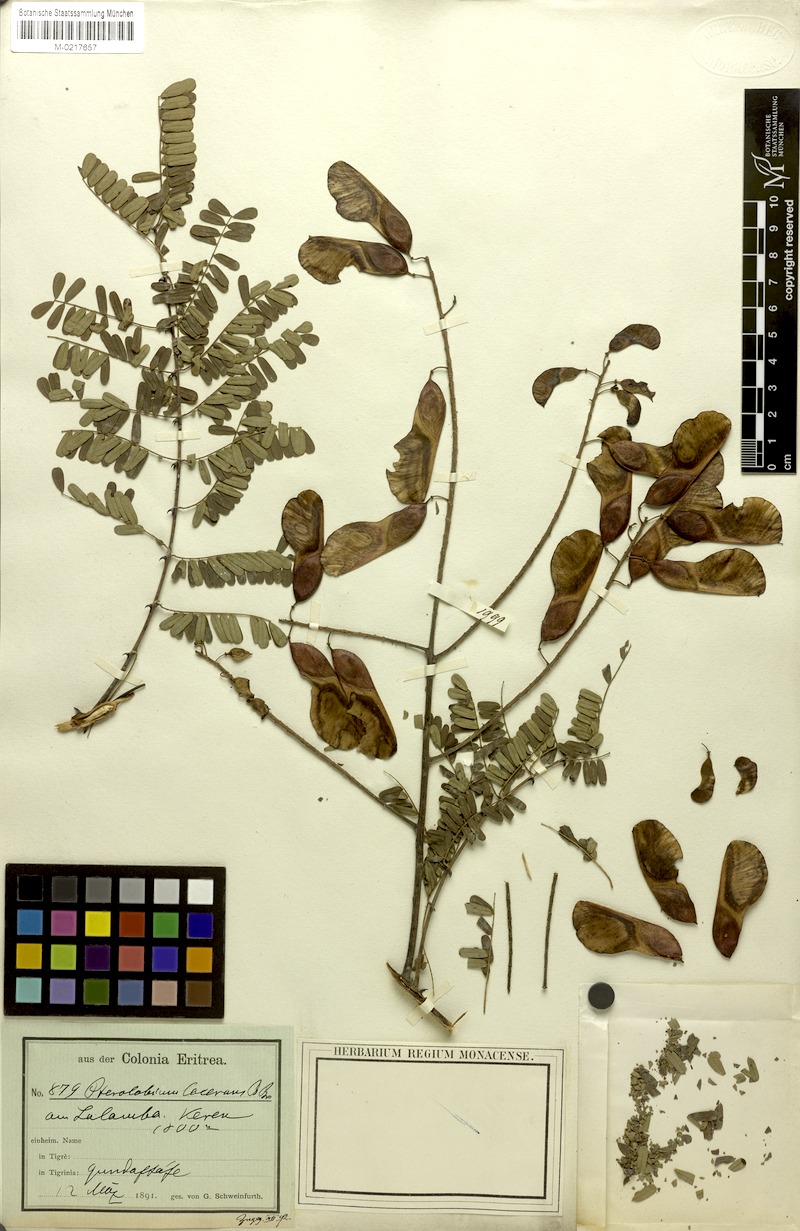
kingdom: Plantae
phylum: Tracheophyta
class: Magnoliopsida
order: Fabales
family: Fabaceae
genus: Pterolobium
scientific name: Pterolobium hexapetalum
